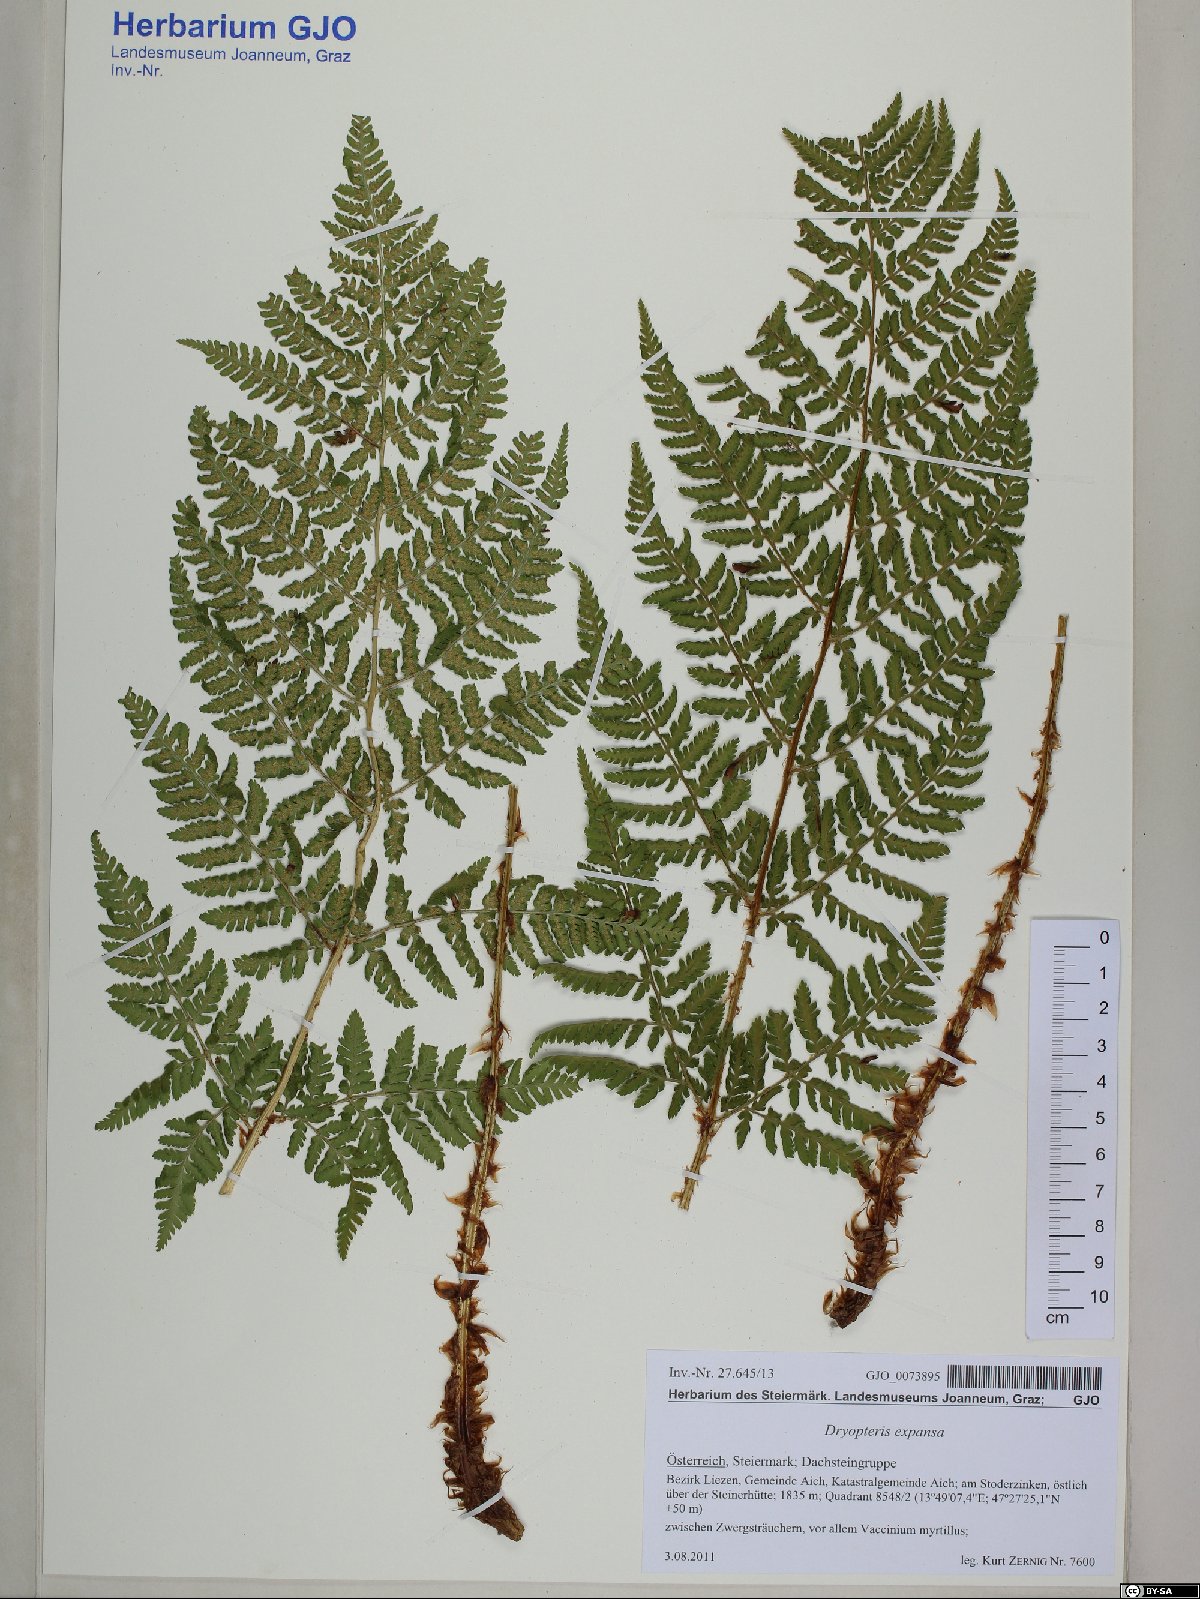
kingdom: Plantae
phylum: Tracheophyta
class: Polypodiopsida
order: Polypodiales
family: Dryopteridaceae
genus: Dryopteris
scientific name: Dryopteris expansa
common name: Northern buckler fern
